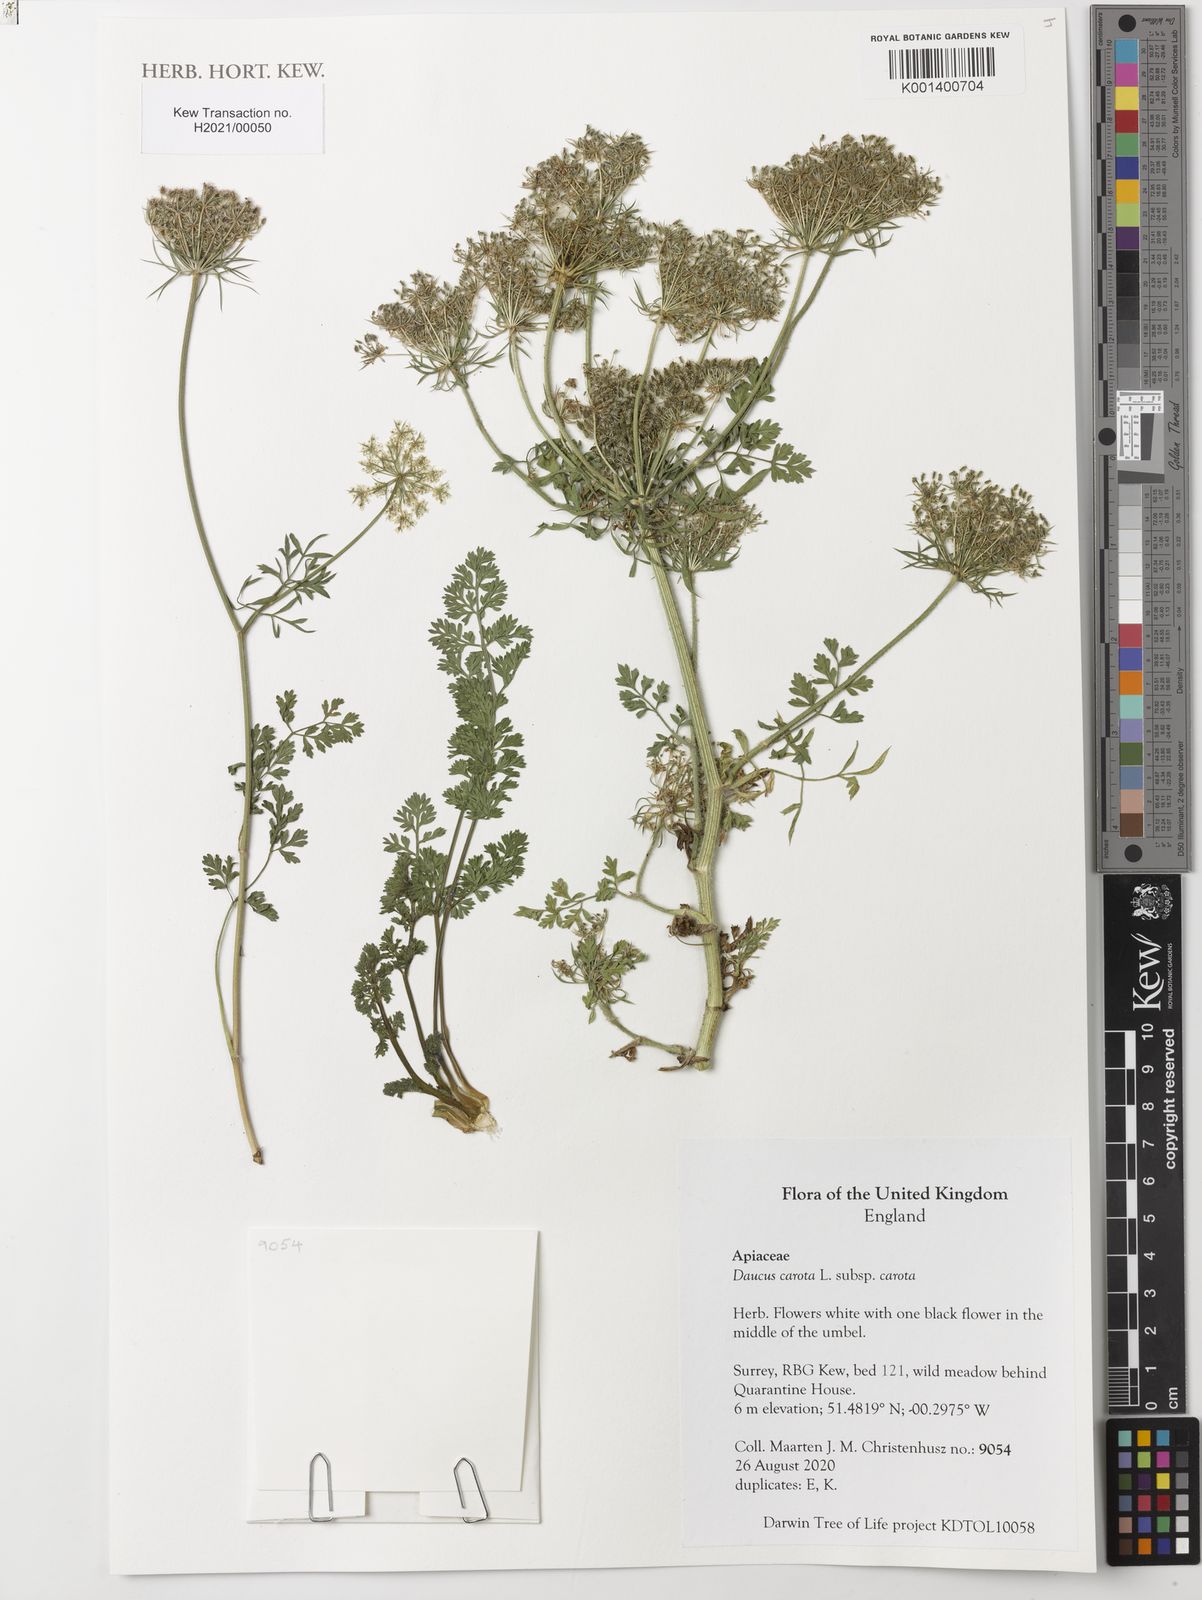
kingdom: Plantae
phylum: Tracheophyta
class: Magnoliopsida
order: Apiales
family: Apiaceae
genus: Daucus
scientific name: Daucus carota
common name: Wild carrot
